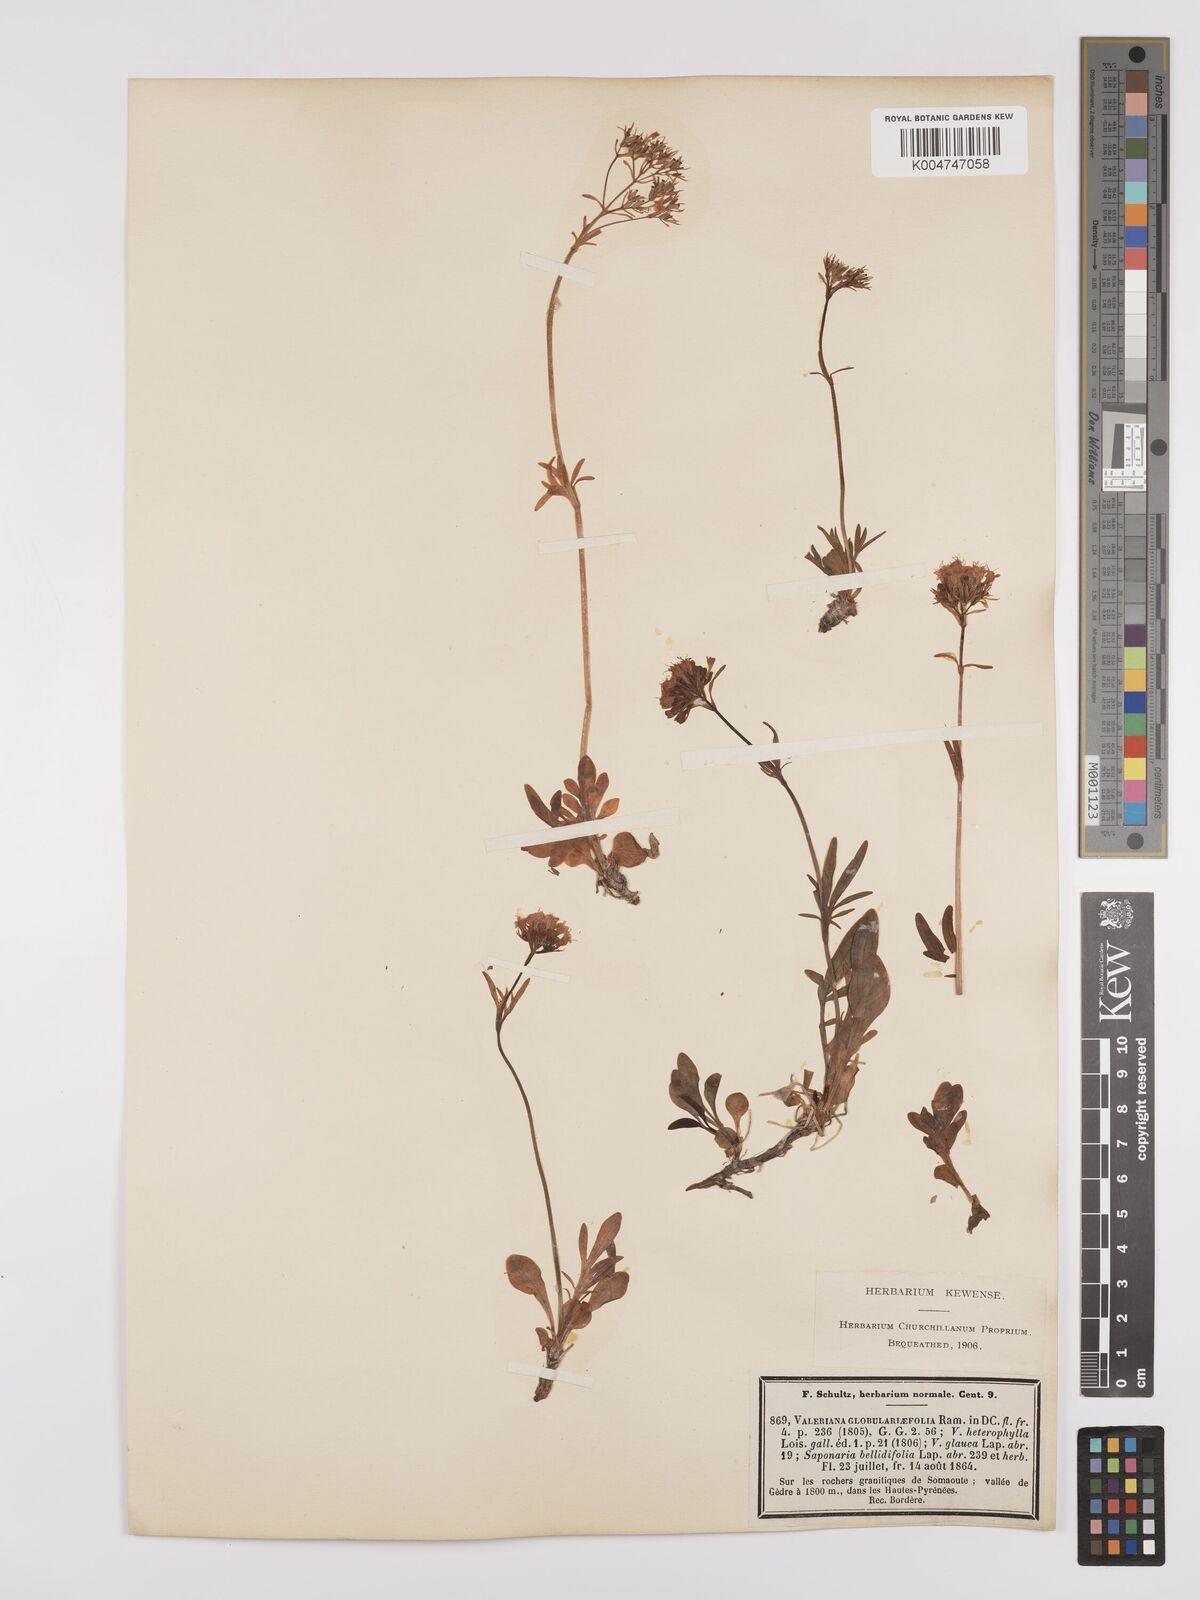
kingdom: Plantae
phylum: Tracheophyta
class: Magnoliopsida
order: Dipsacales
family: Caprifoliaceae
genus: Valeriana
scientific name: Valeriana apula
